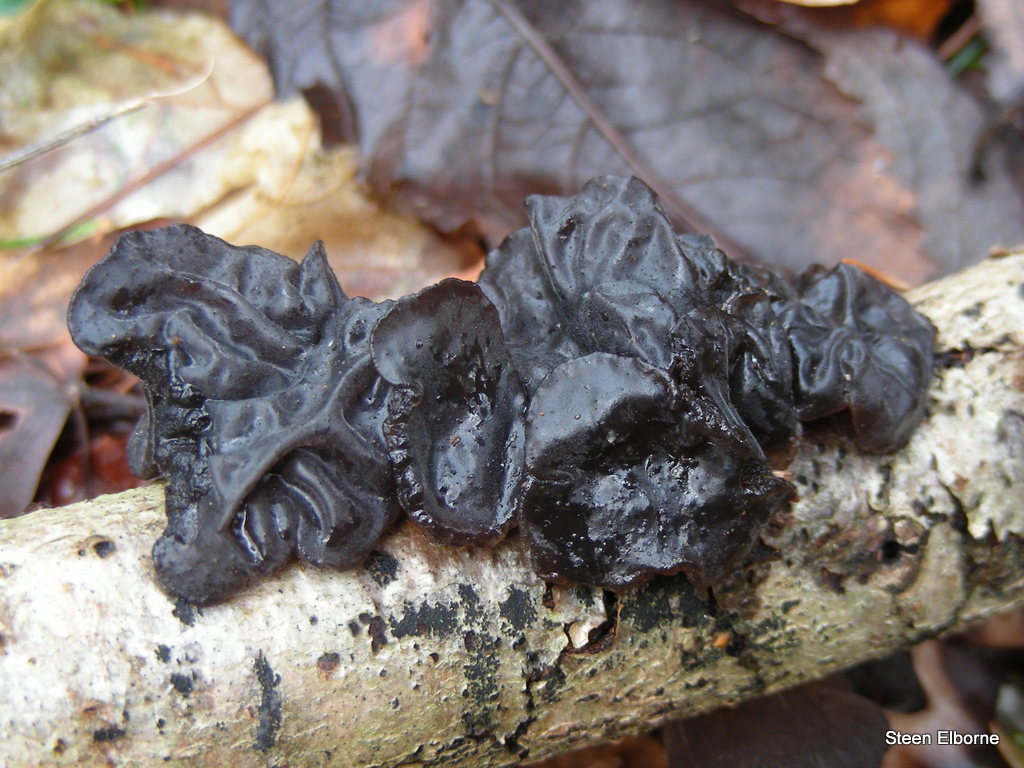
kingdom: Fungi
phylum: Basidiomycota
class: Agaricomycetes
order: Auriculariales
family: Auriculariaceae
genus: Exidia
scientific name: Exidia glandulosa
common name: ege-bævretop
